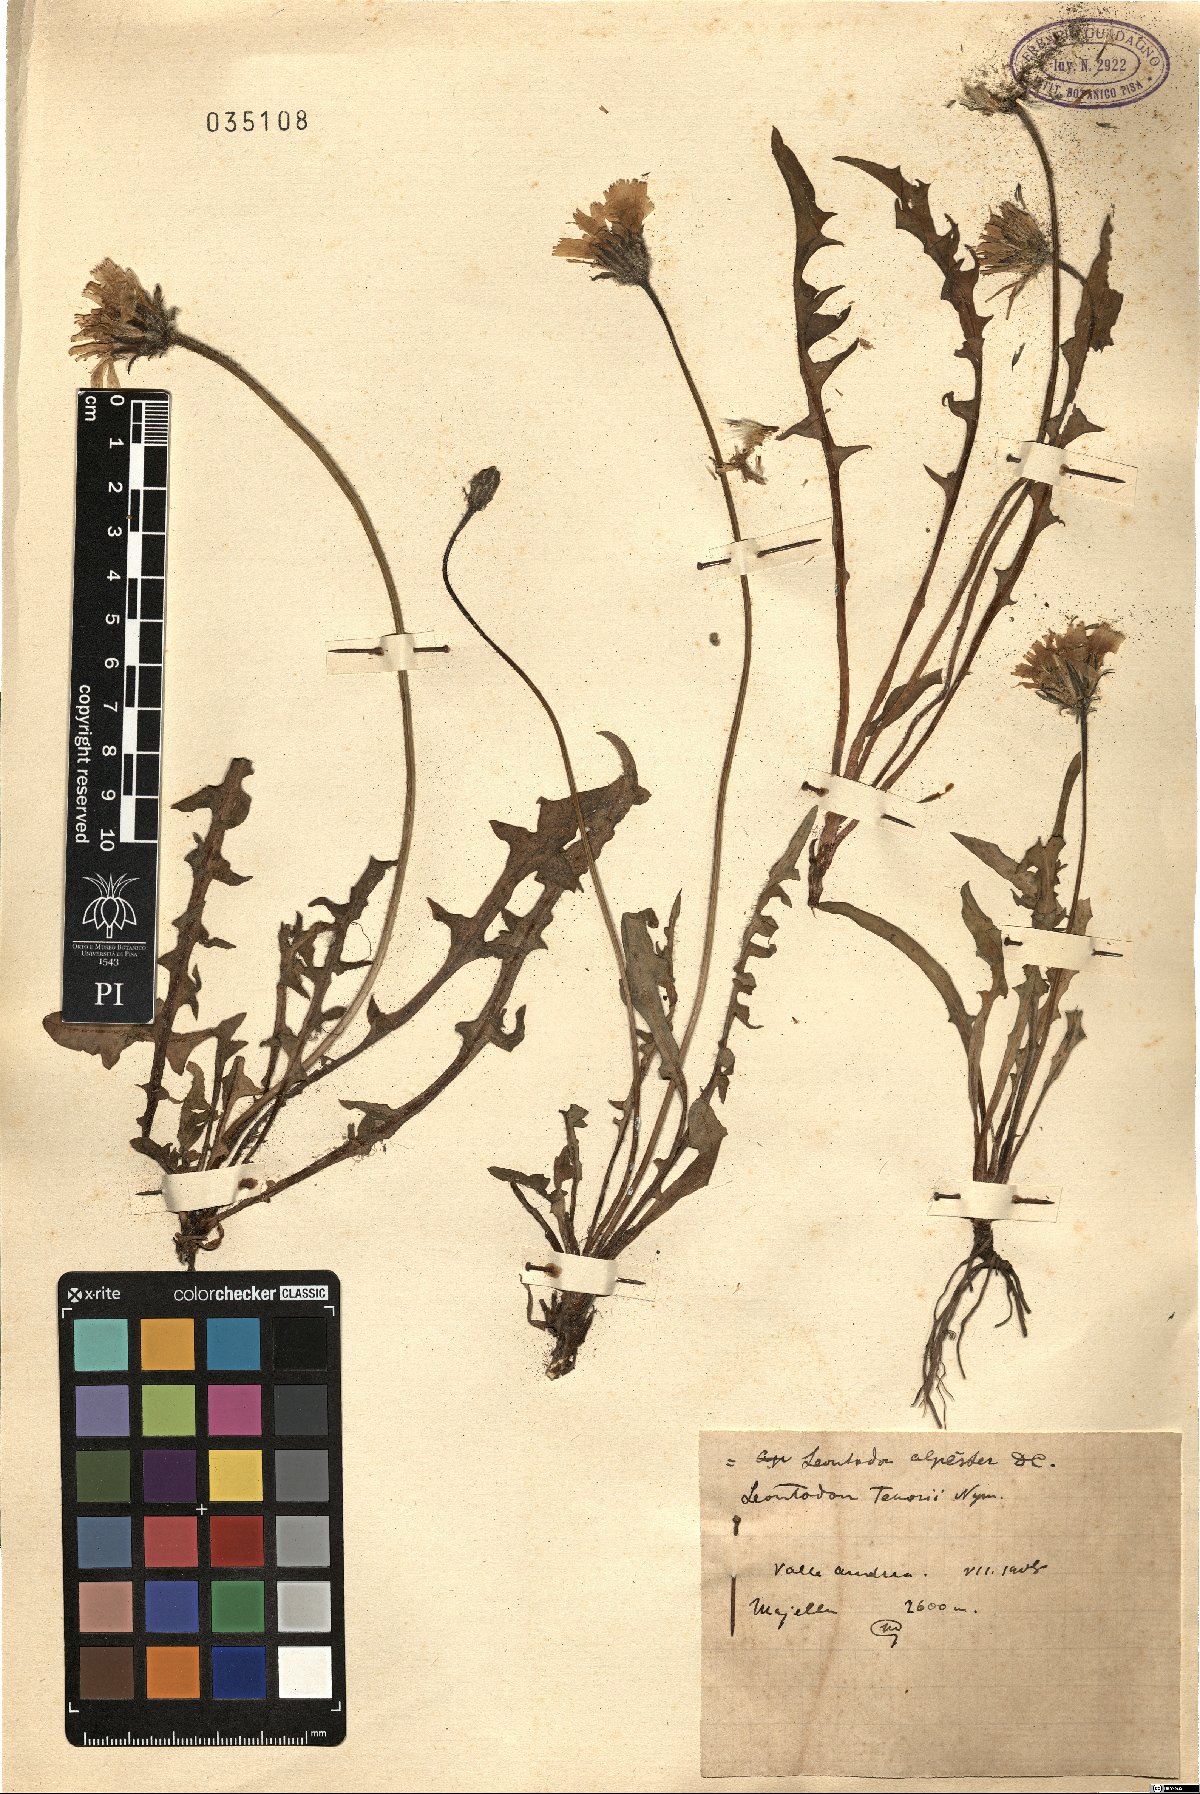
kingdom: Plantae
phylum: Tracheophyta
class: Magnoliopsida
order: Asterales
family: Asteraceae
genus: Leontodon
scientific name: Leontodon hyoseroides
